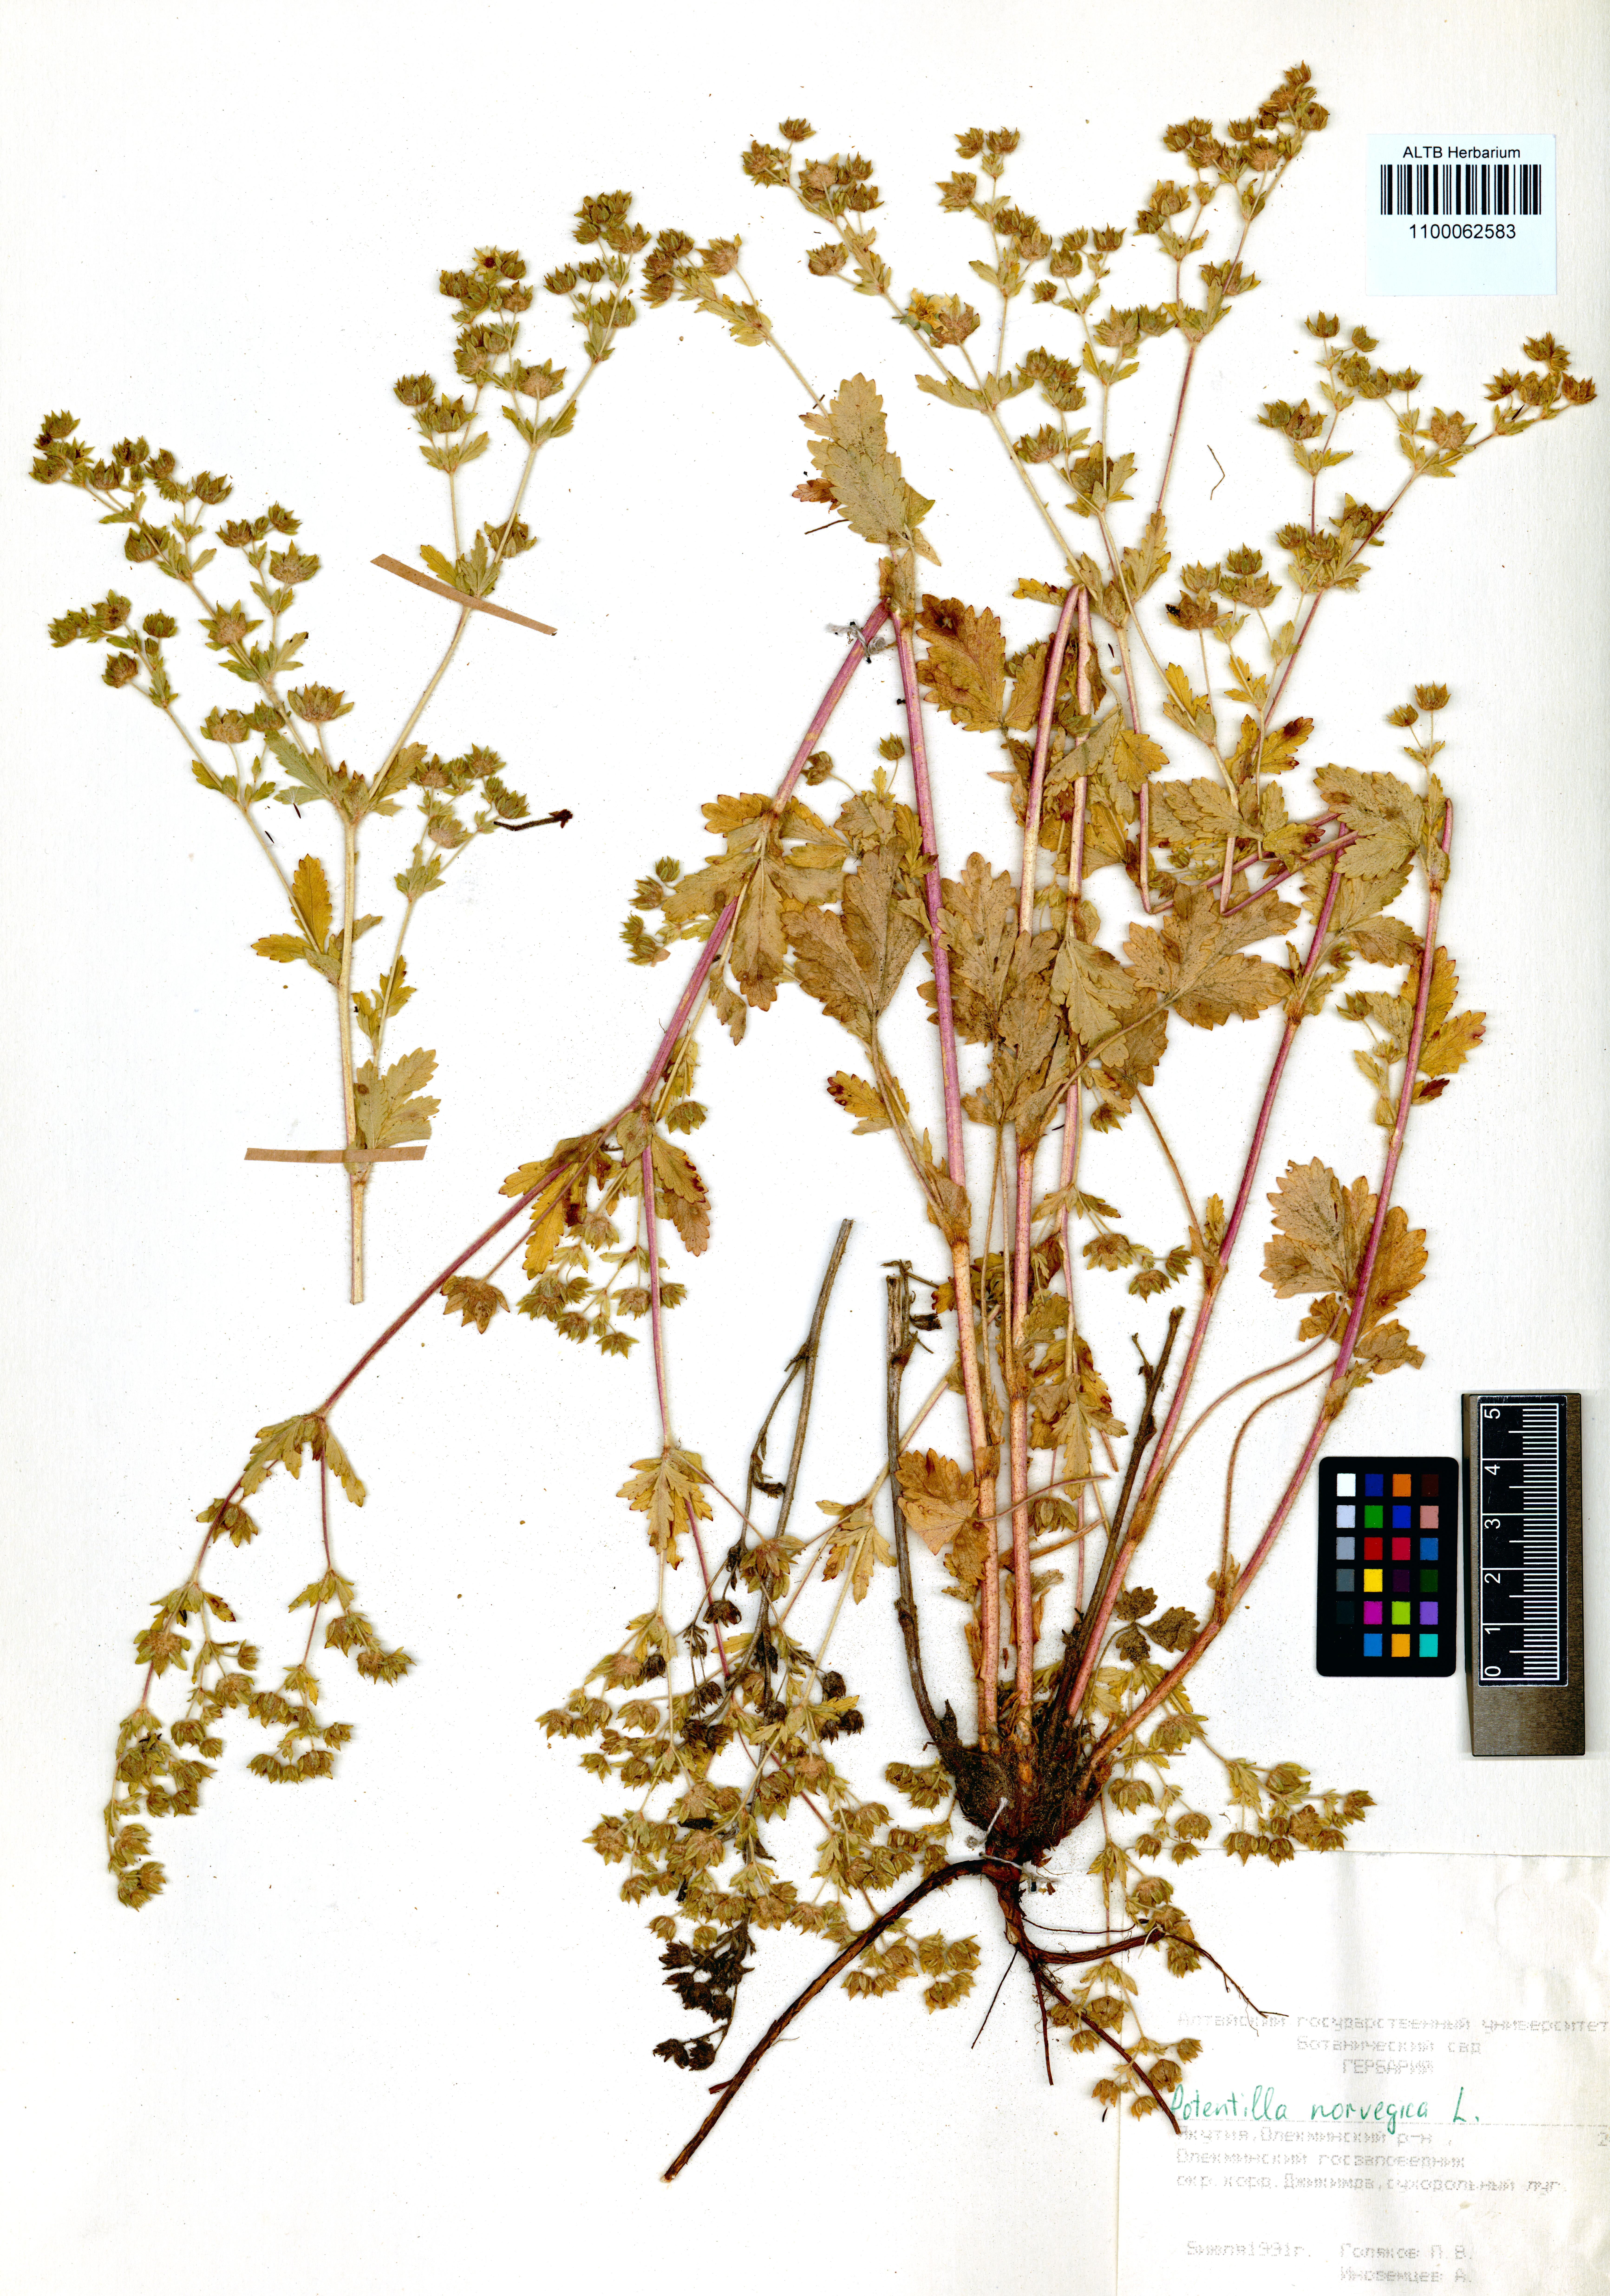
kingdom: Plantae
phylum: Tracheophyta
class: Magnoliopsida
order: Rosales
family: Rosaceae
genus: Potentilla
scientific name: Potentilla norvegica
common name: Ternate-leaved cinquefoil
